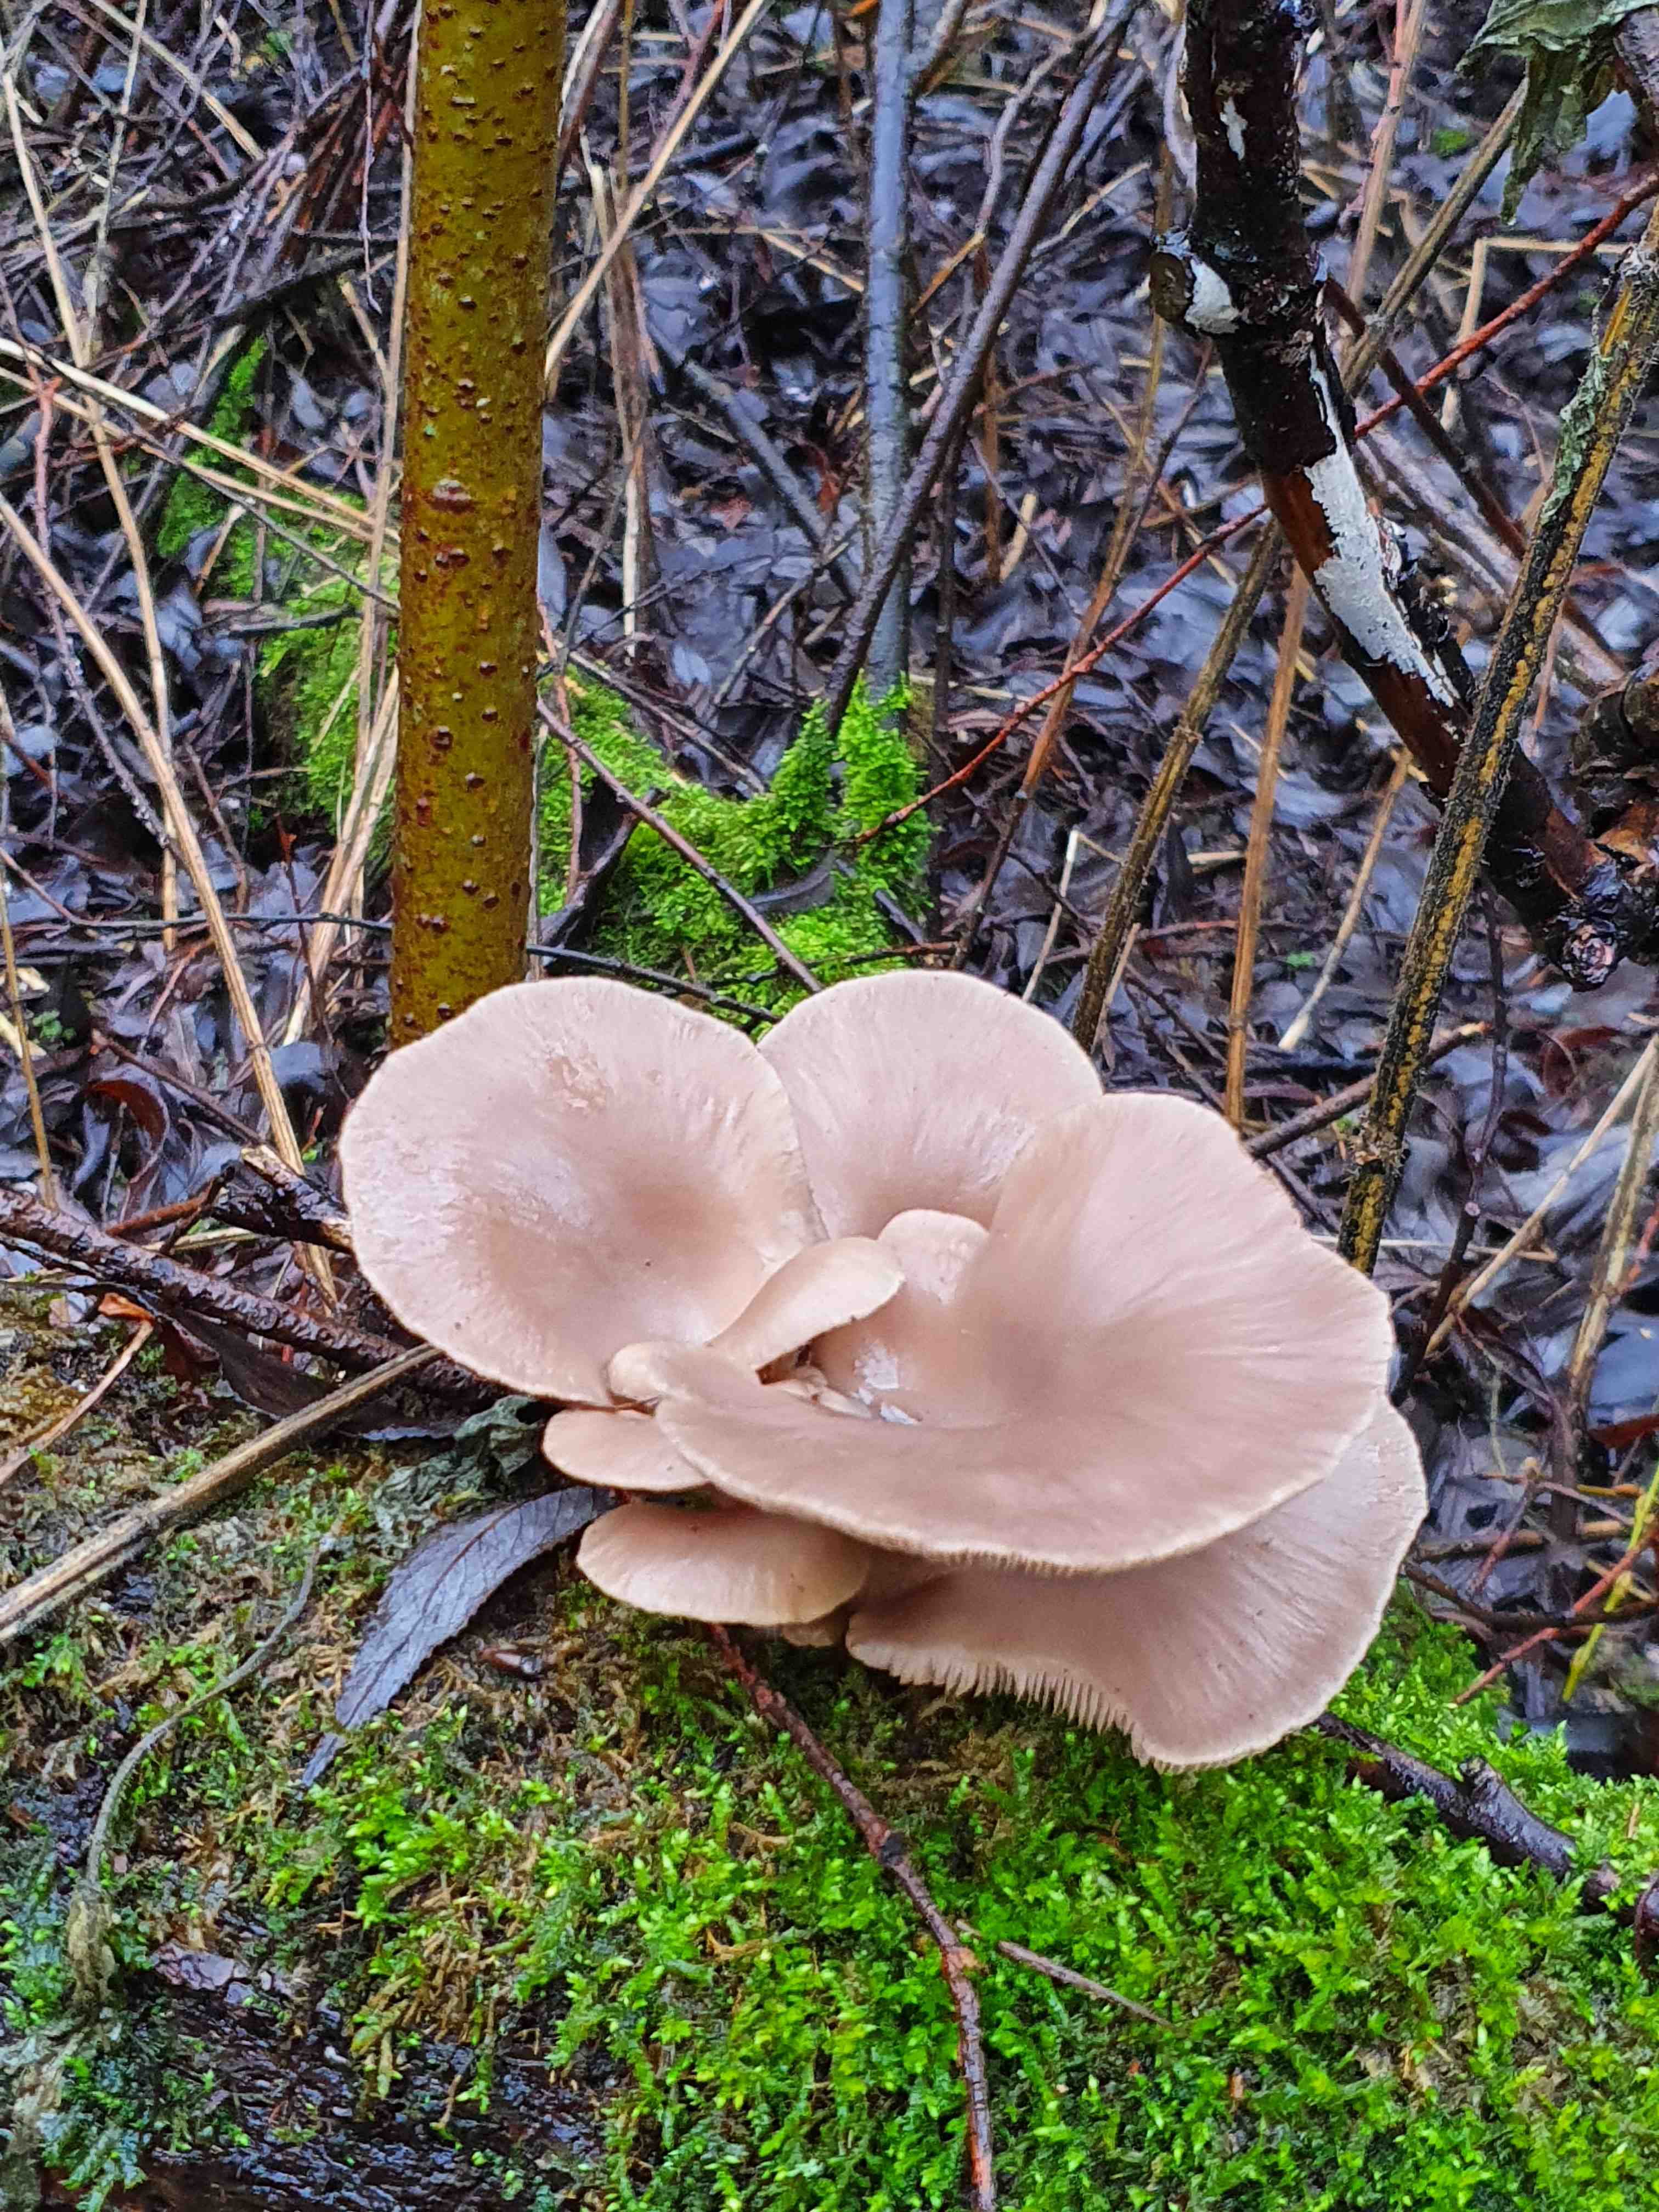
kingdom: Fungi
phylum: Basidiomycota
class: Agaricomycetes
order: Agaricales
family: Pleurotaceae
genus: Pleurotus
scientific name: Pleurotus ostreatus
